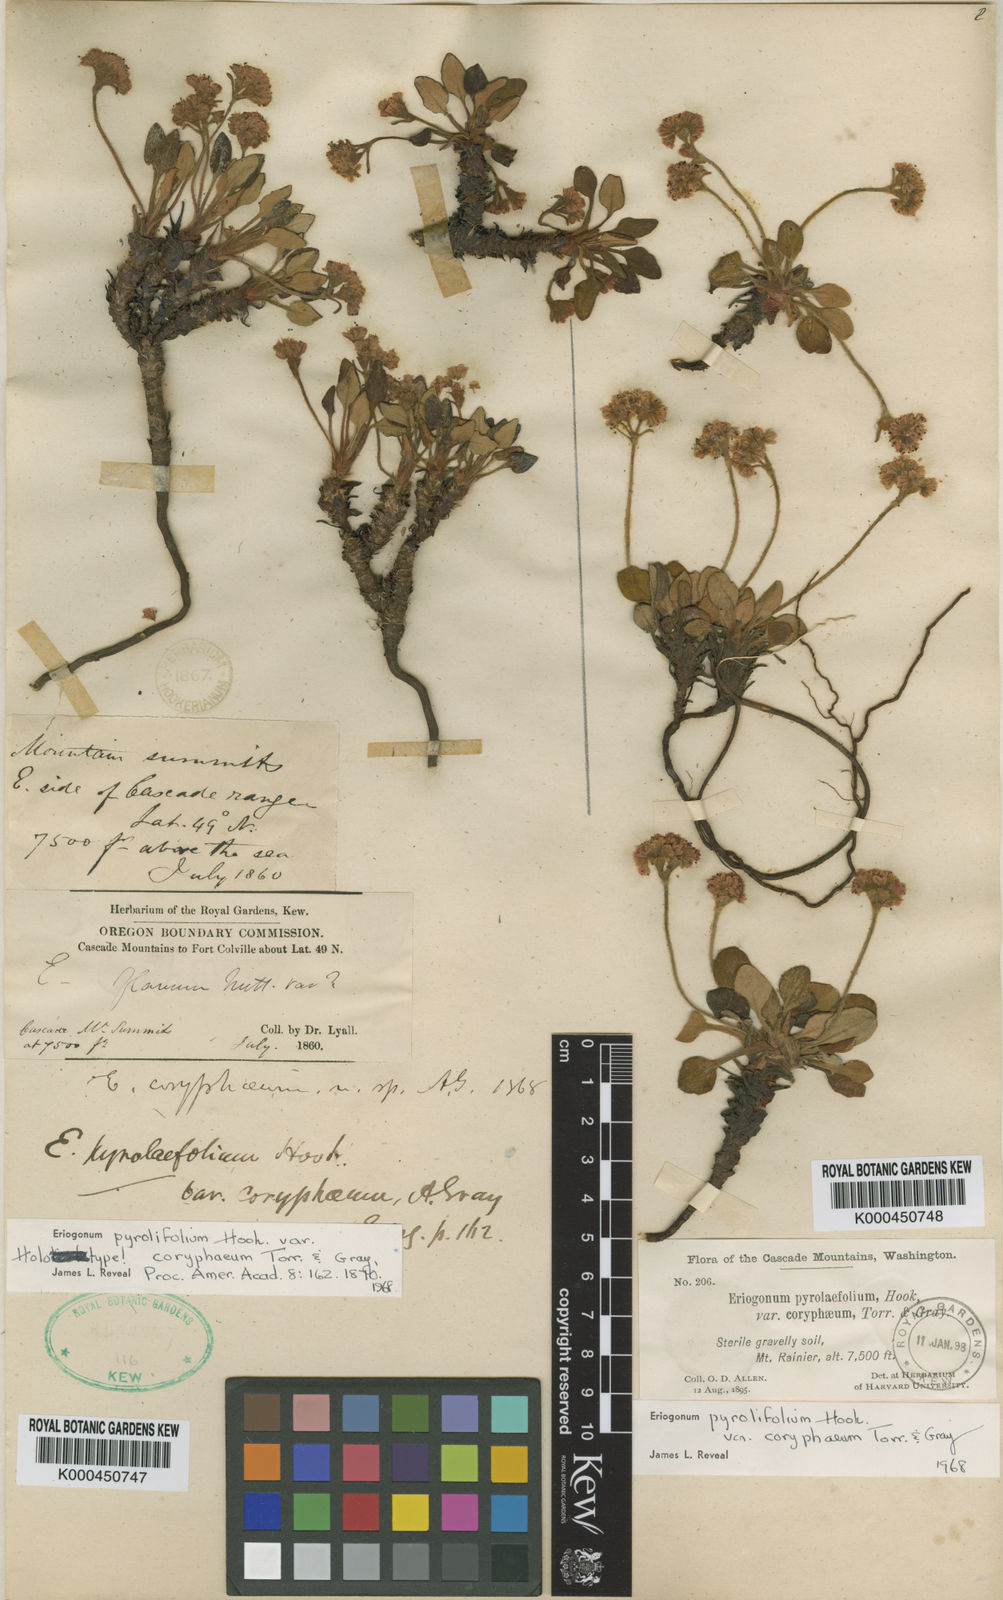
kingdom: Plantae
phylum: Tracheophyta
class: Magnoliopsida
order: Caryophyllales
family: Polygonaceae
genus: Eriogonum
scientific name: Eriogonum pyrolifolium
